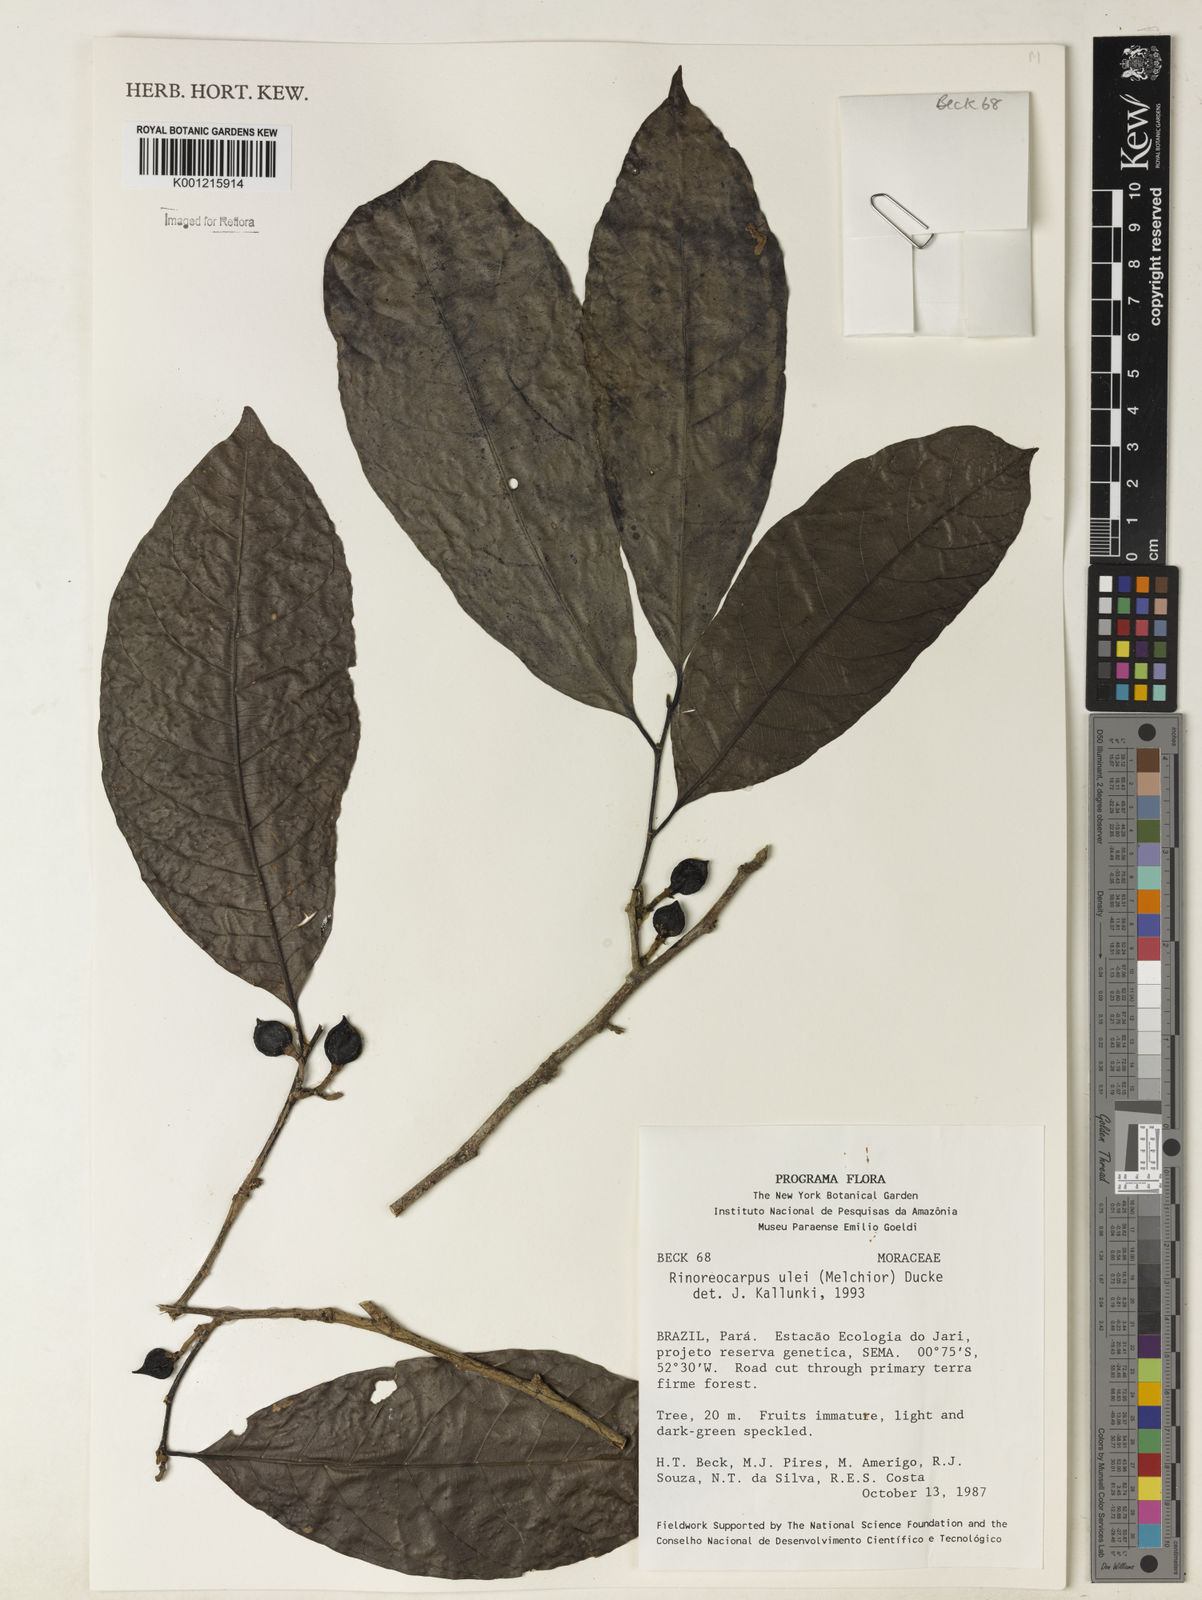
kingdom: Plantae
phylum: Tracheophyta
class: Magnoliopsida
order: Malpighiales
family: Violaceae
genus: Rinorea
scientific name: Rinorea
